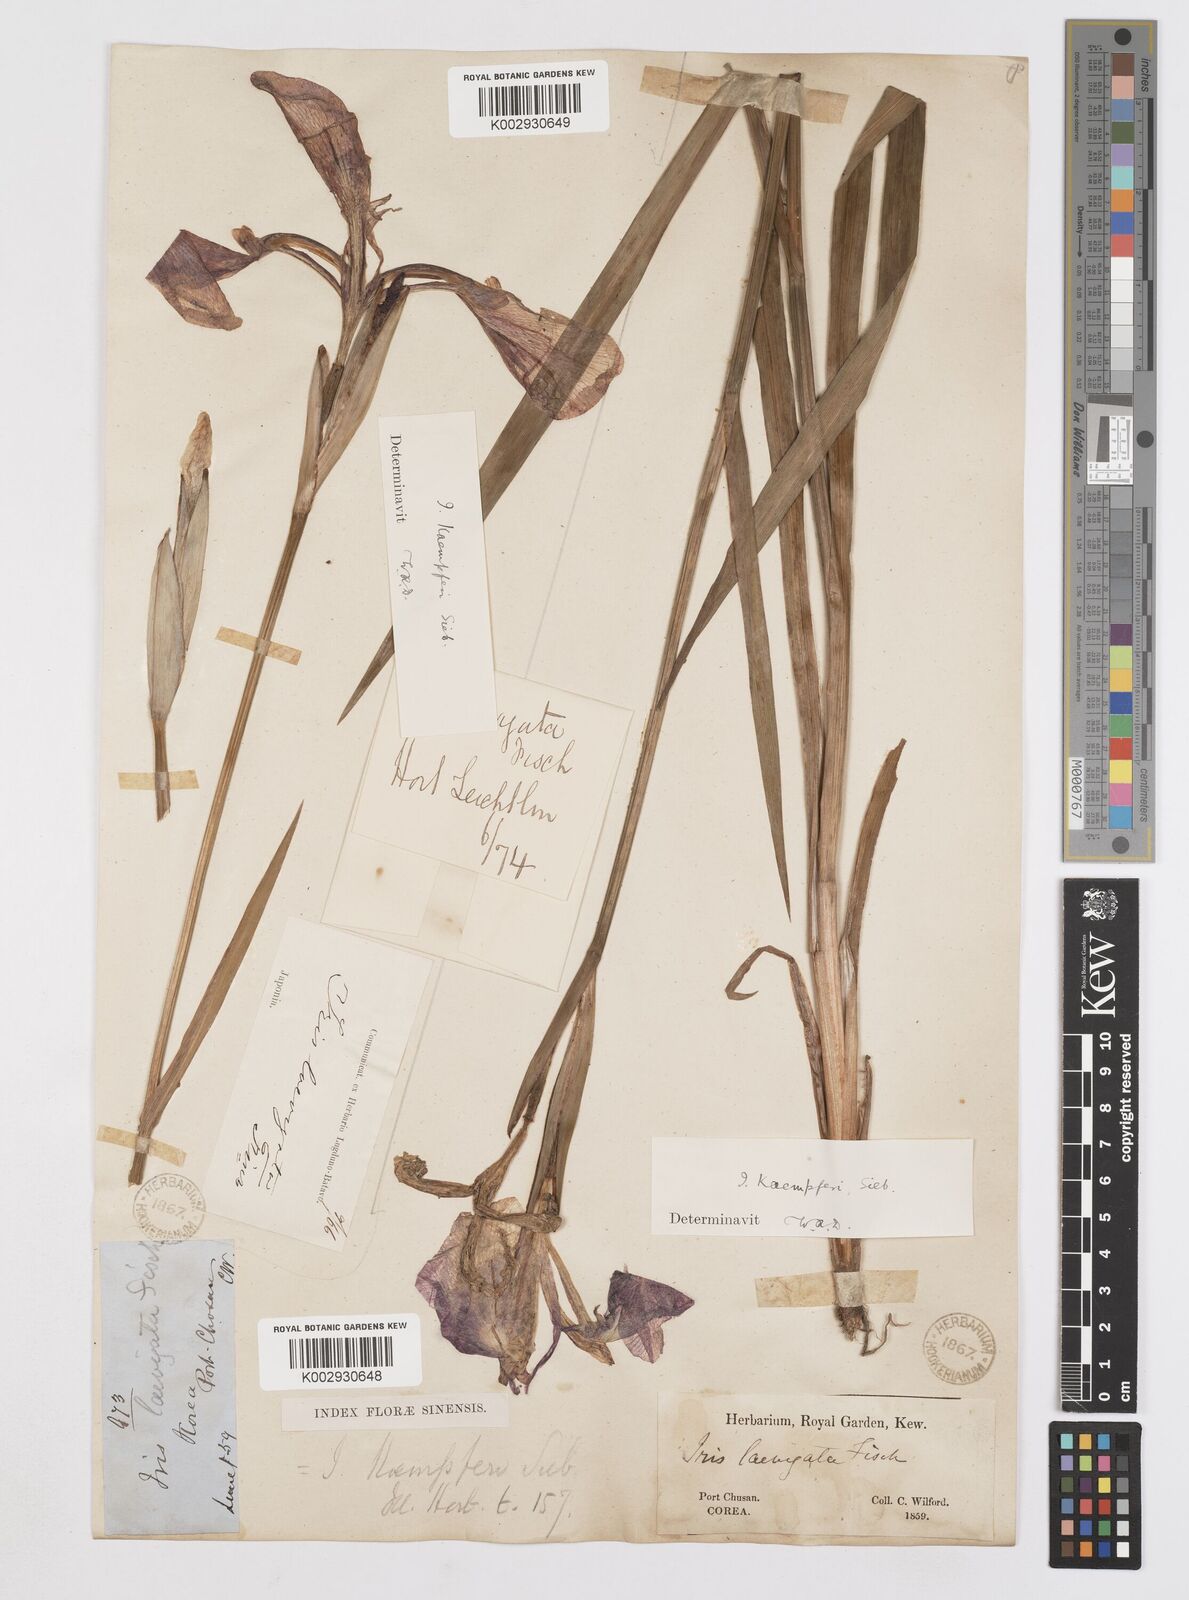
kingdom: Plantae
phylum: Tracheophyta
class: Liliopsida
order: Asparagales
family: Iridaceae
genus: Iris
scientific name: Iris ensata
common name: Beaked iris
